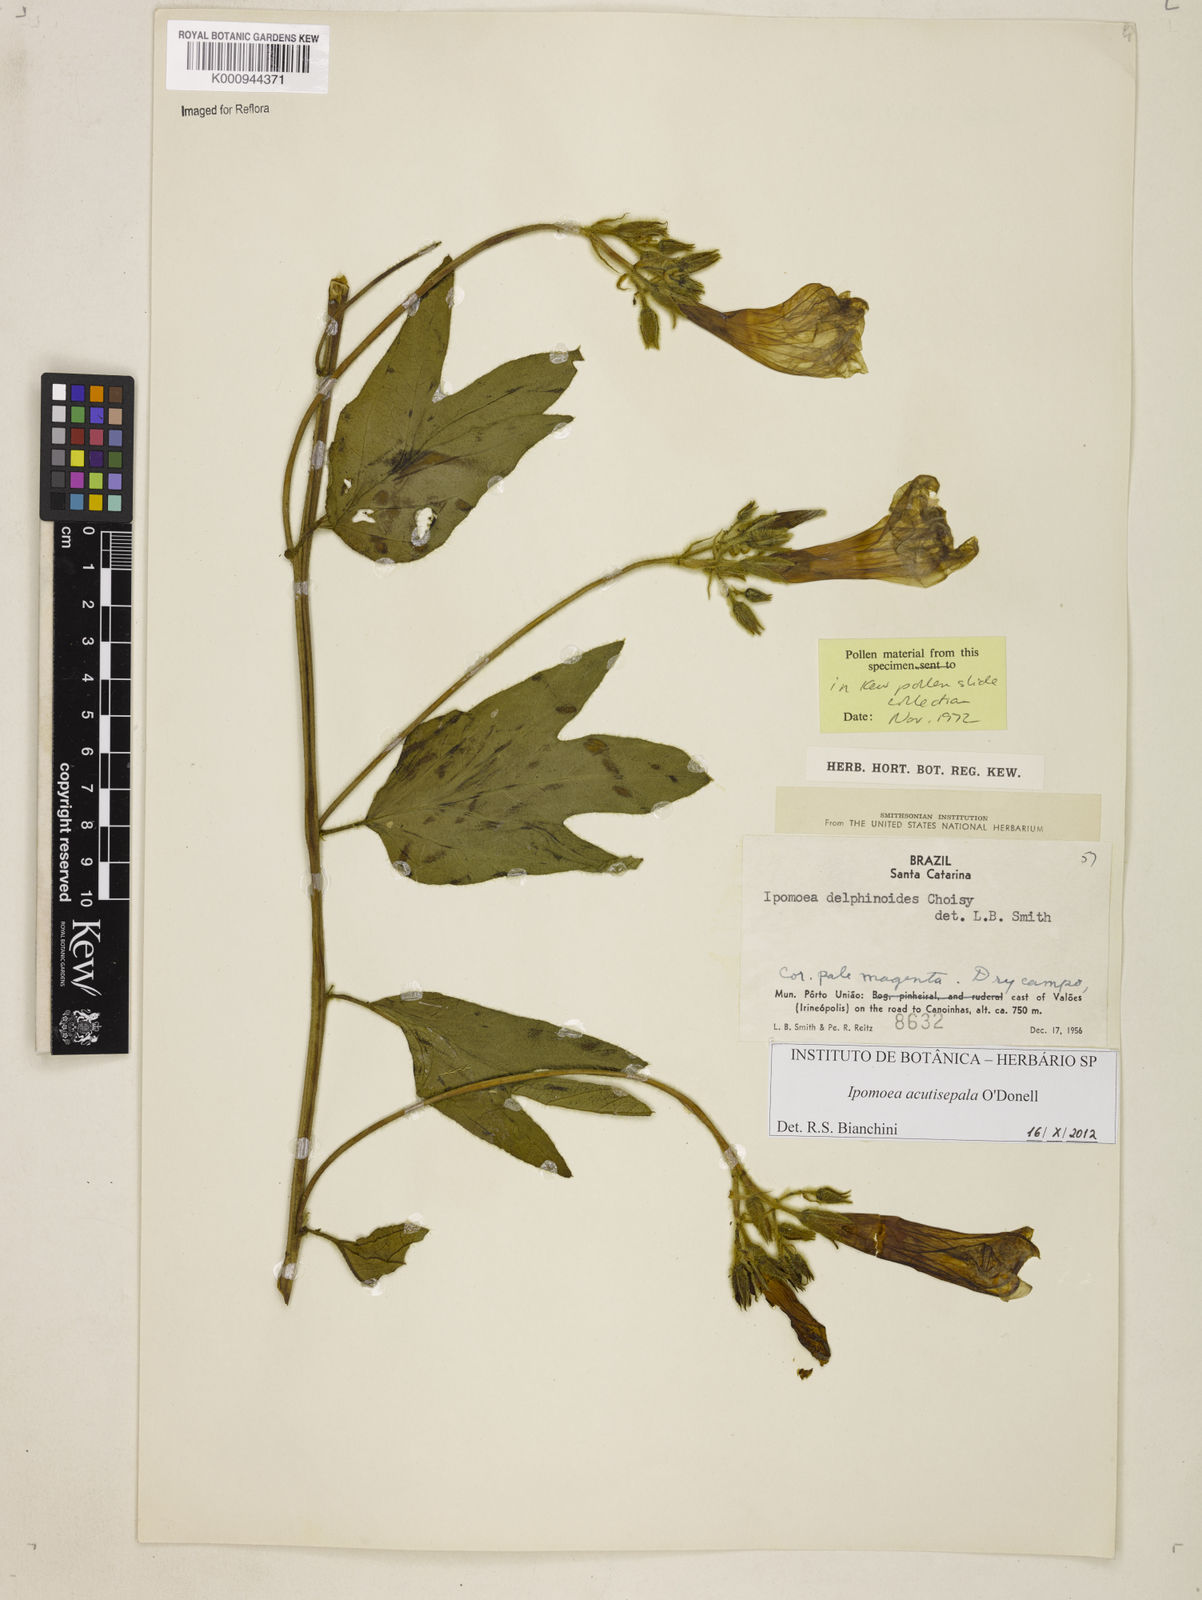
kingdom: Plantae
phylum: Tracheophyta
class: Magnoliopsida
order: Solanales
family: Convolvulaceae
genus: Ipomoea
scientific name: Ipomoea acutisepala
